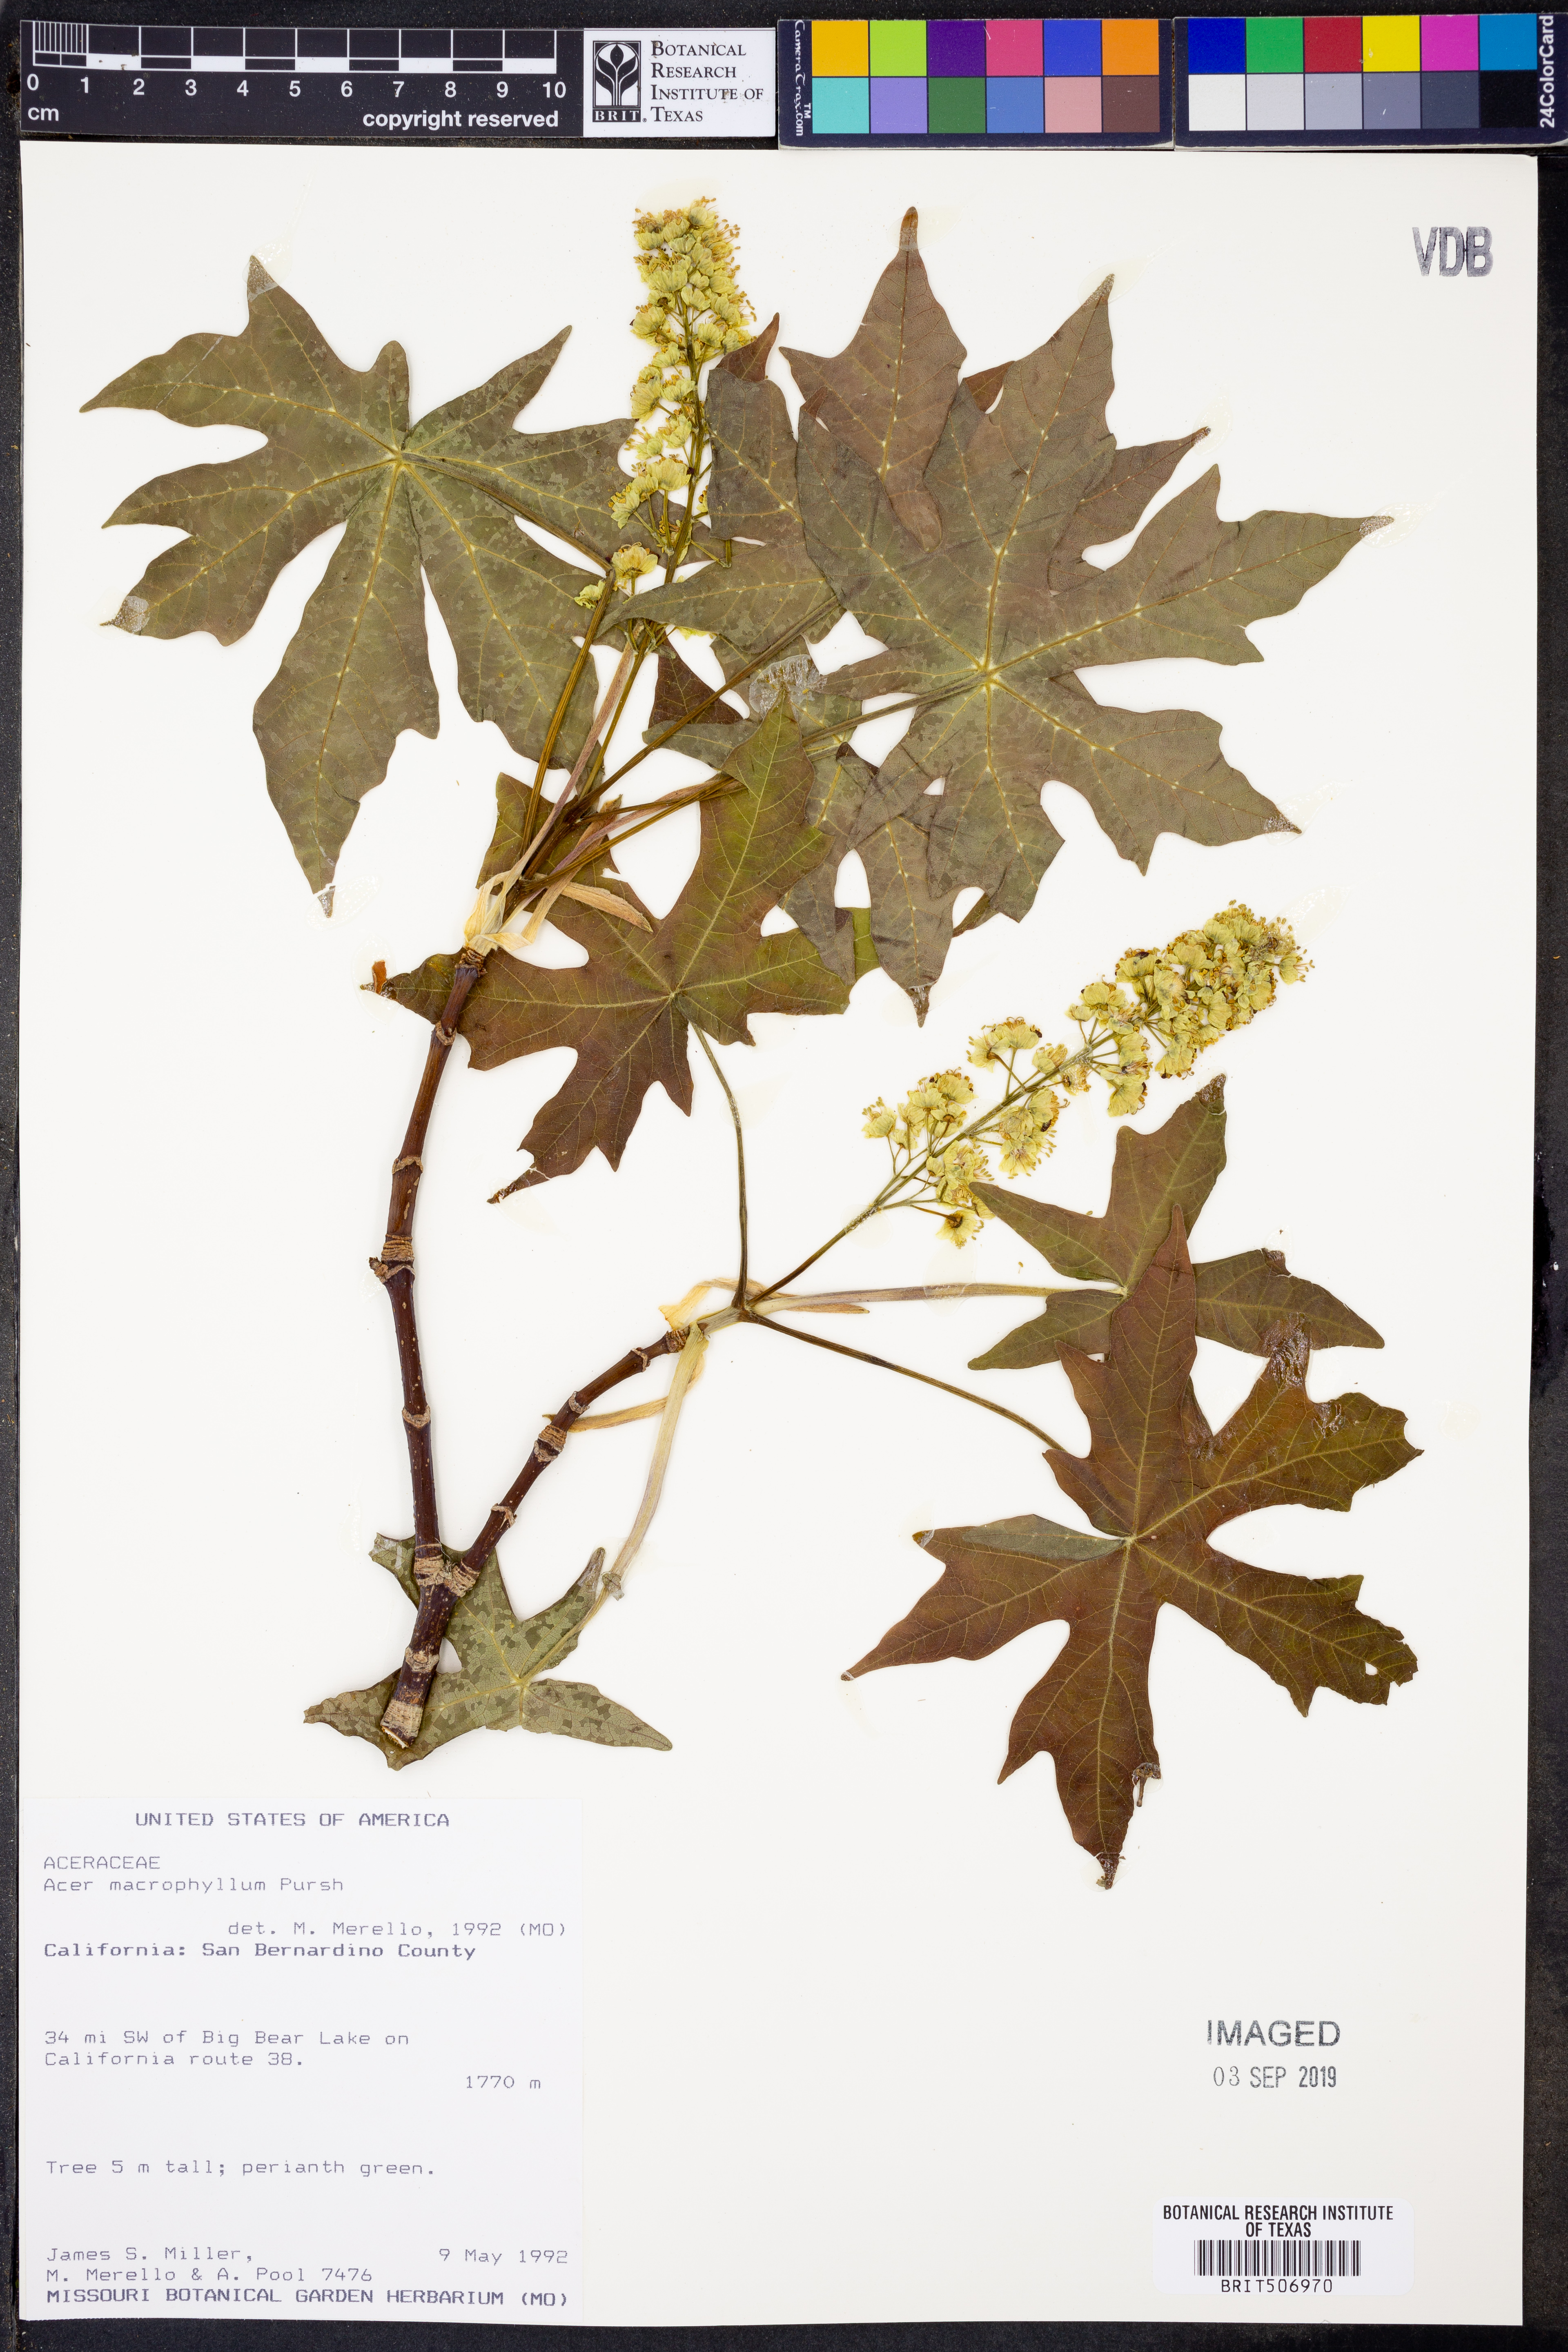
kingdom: Plantae
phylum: Tracheophyta
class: Magnoliopsida
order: Sapindales
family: Sapindaceae
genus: Acer
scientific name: Acer macrophyllum
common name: Oregon maple
